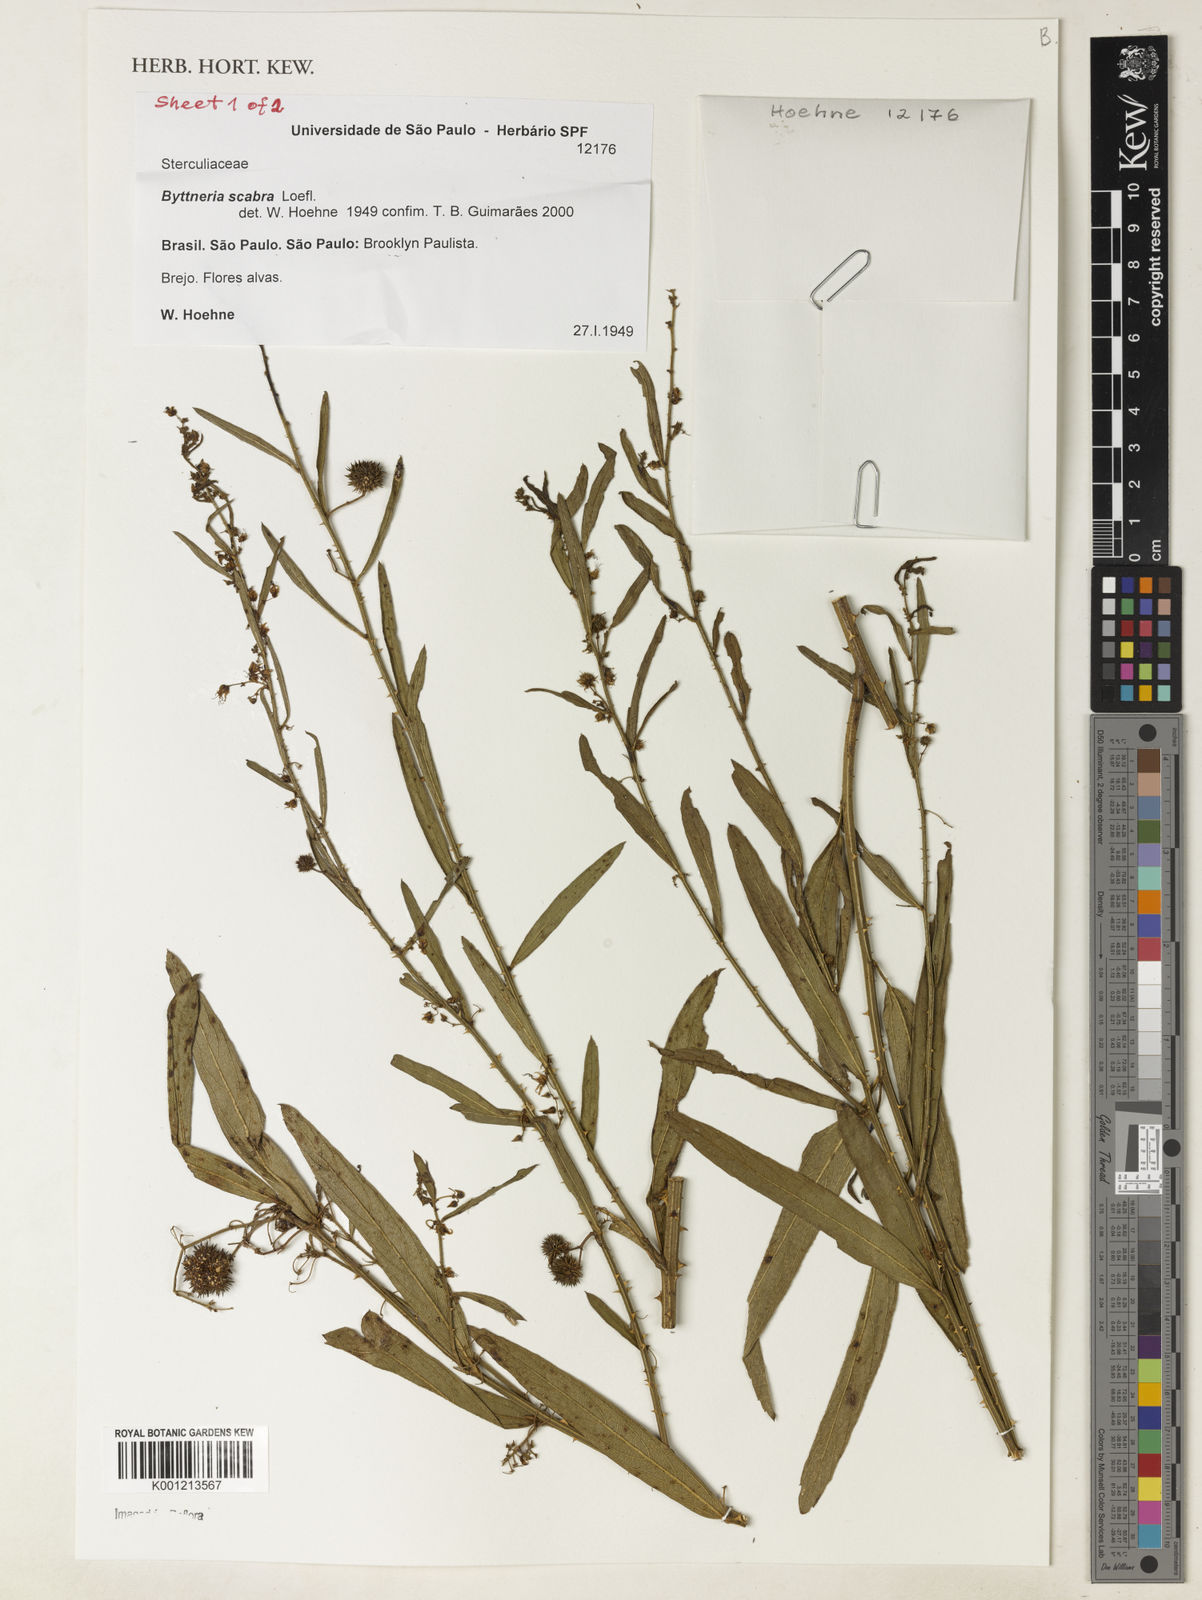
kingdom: Plantae
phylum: Tracheophyta
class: Magnoliopsida
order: Malvales
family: Malvaceae
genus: Byttneria
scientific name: Byttneria
